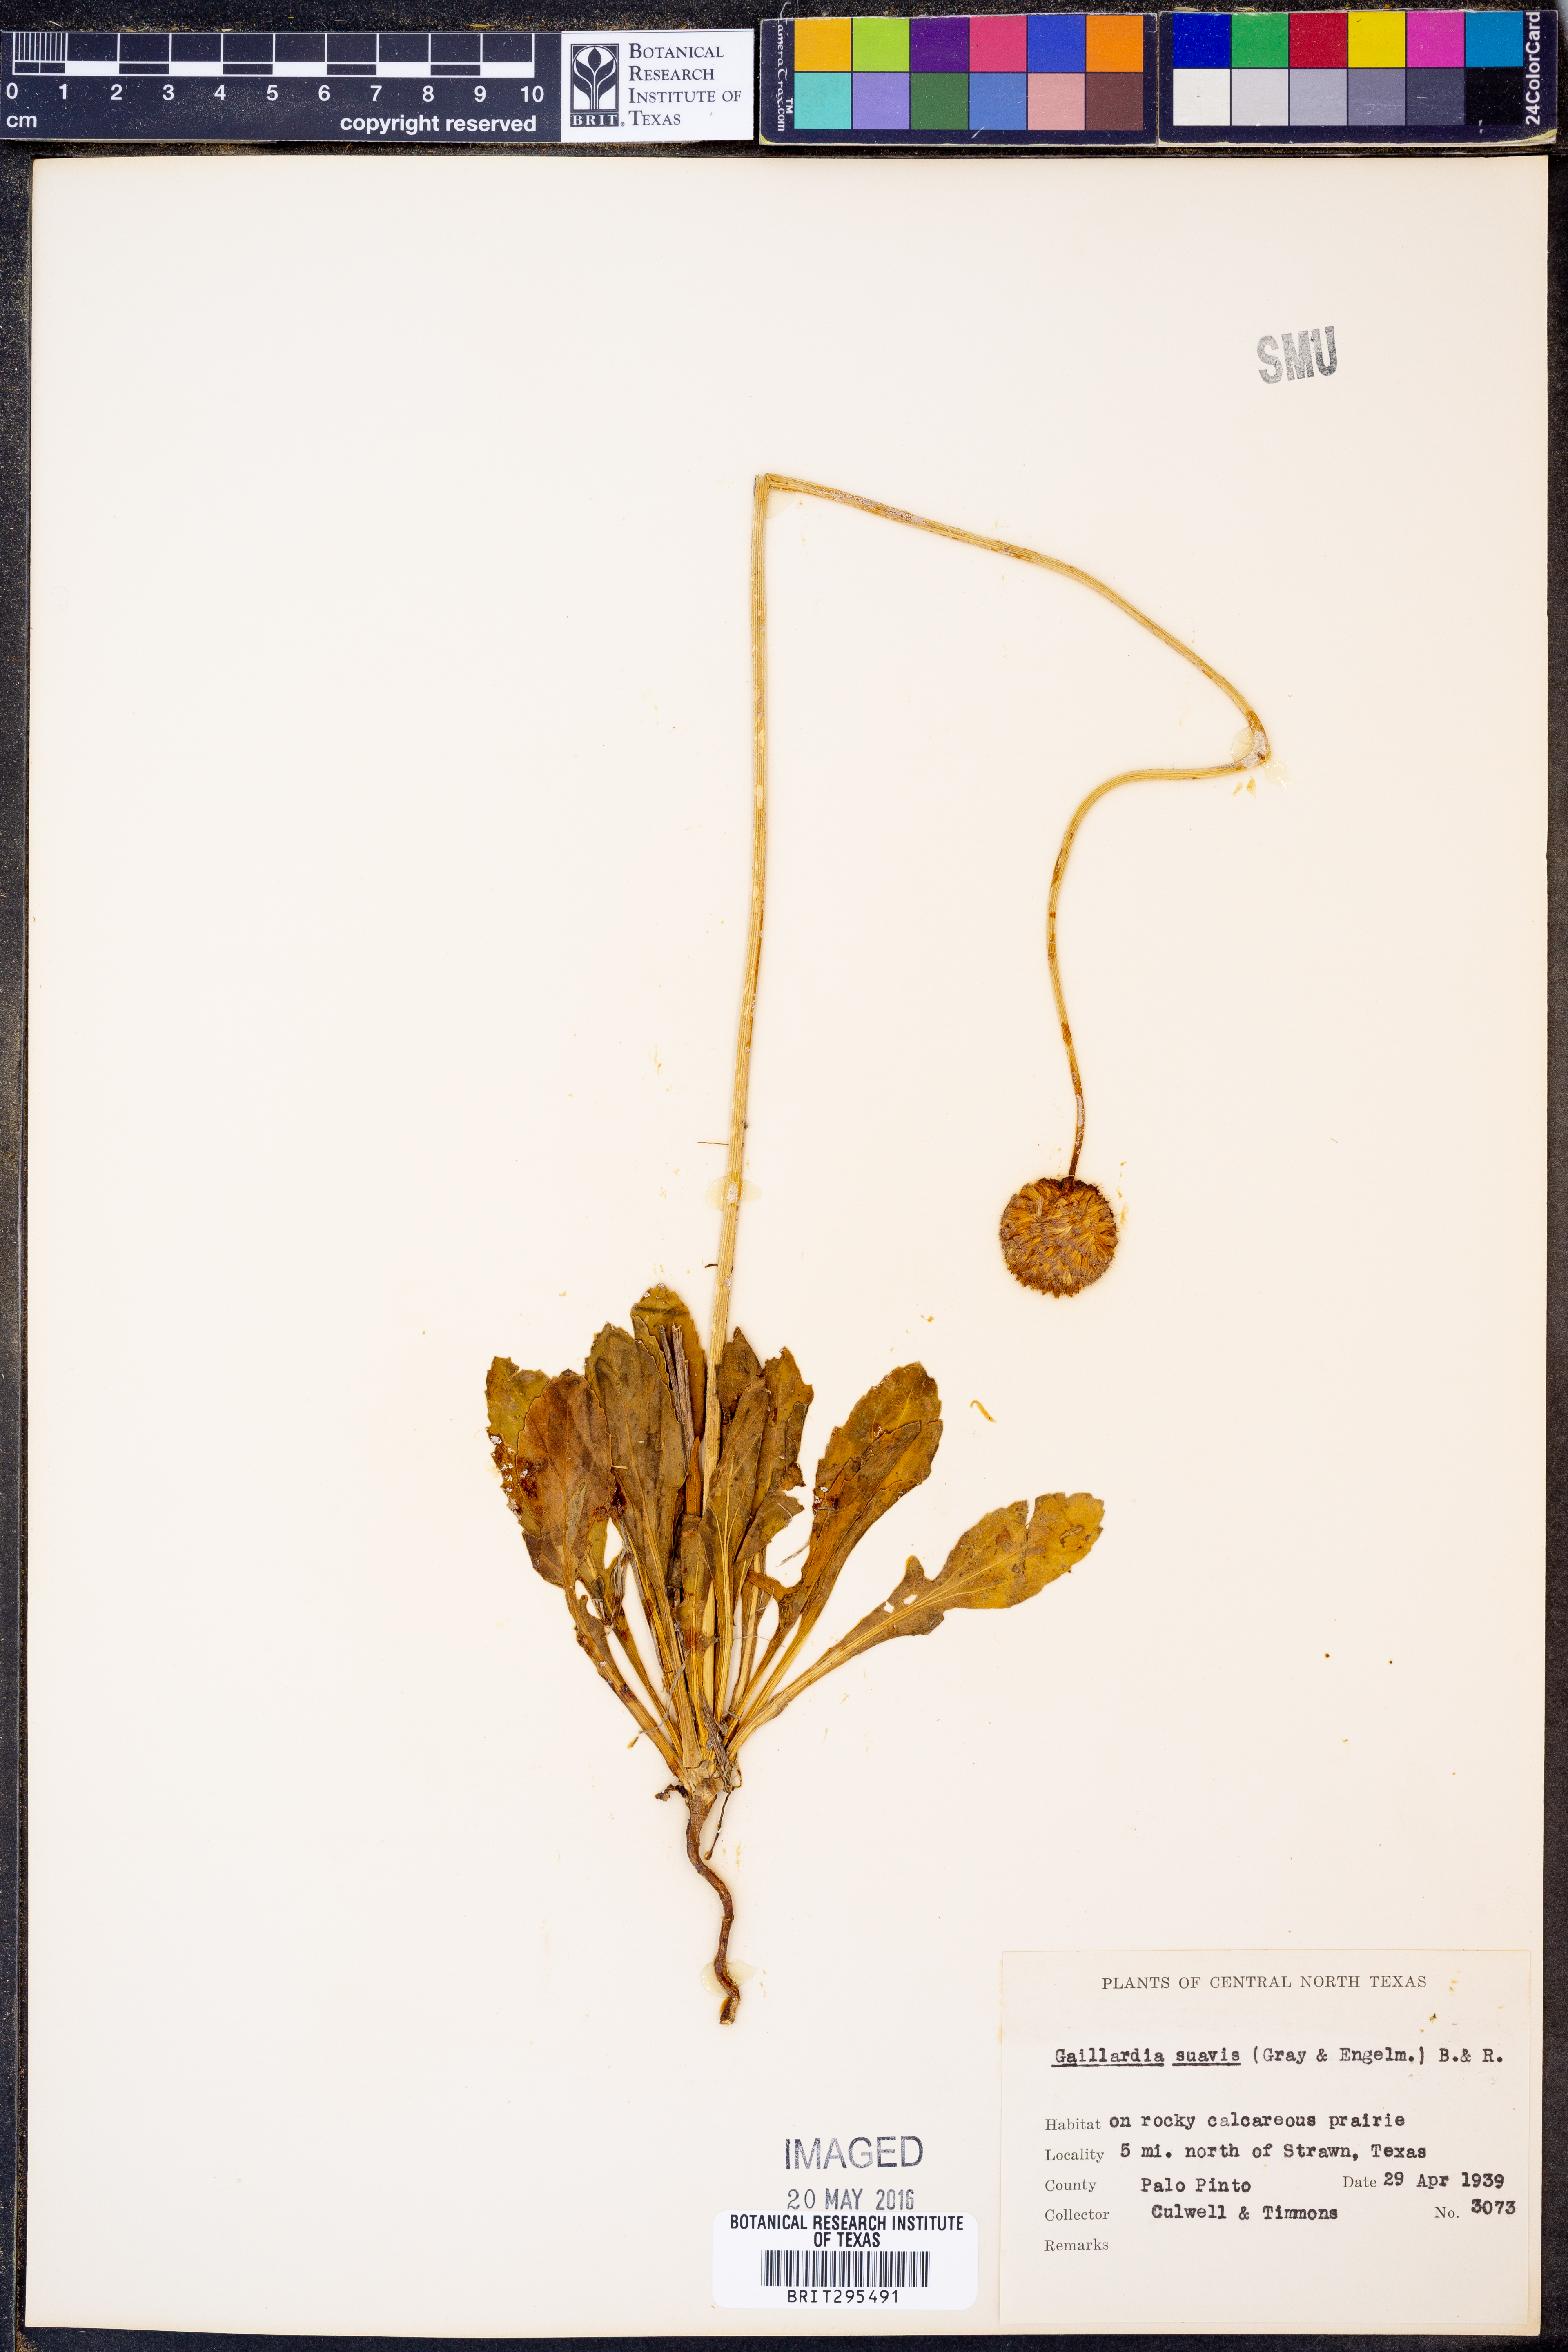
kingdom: Plantae
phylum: Tracheophyta
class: Magnoliopsida
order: Asterales
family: Asteraceae
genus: Gaillardia
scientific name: Gaillardia suavis
